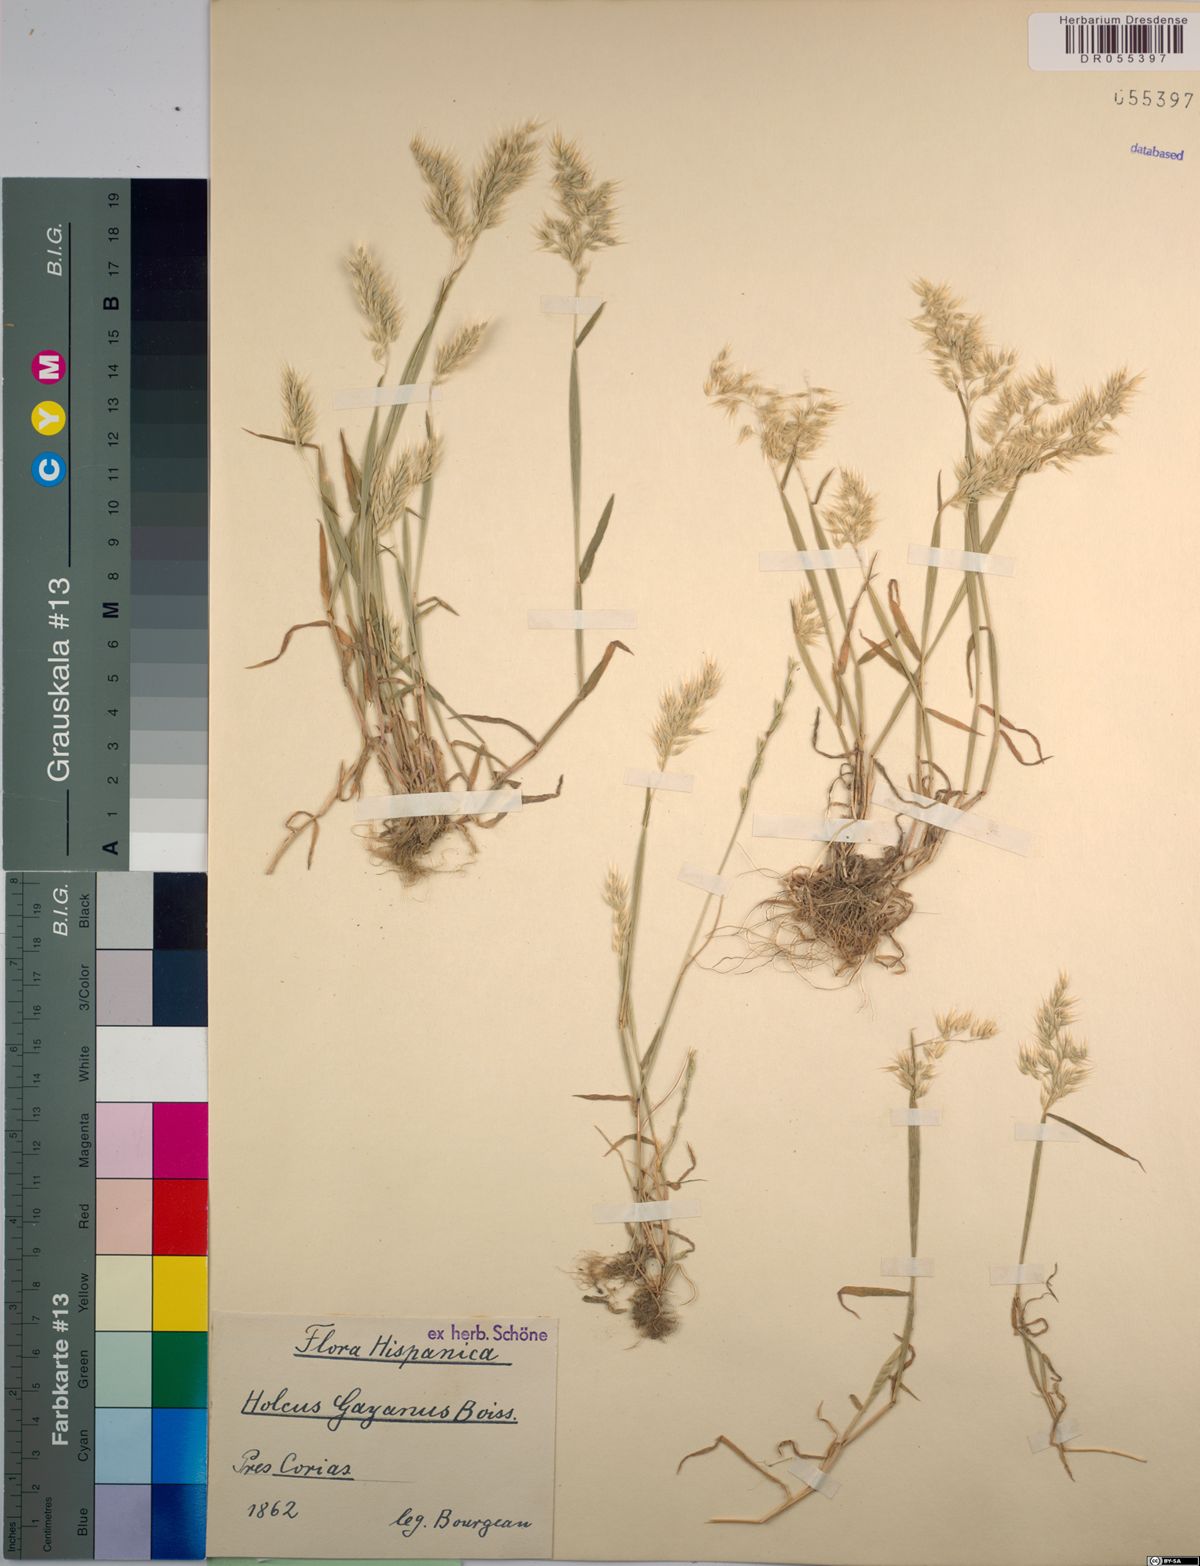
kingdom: Plantae
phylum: Tracheophyta
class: Liliopsida
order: Poales
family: Poaceae
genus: Holcus
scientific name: Holcus gayanus
